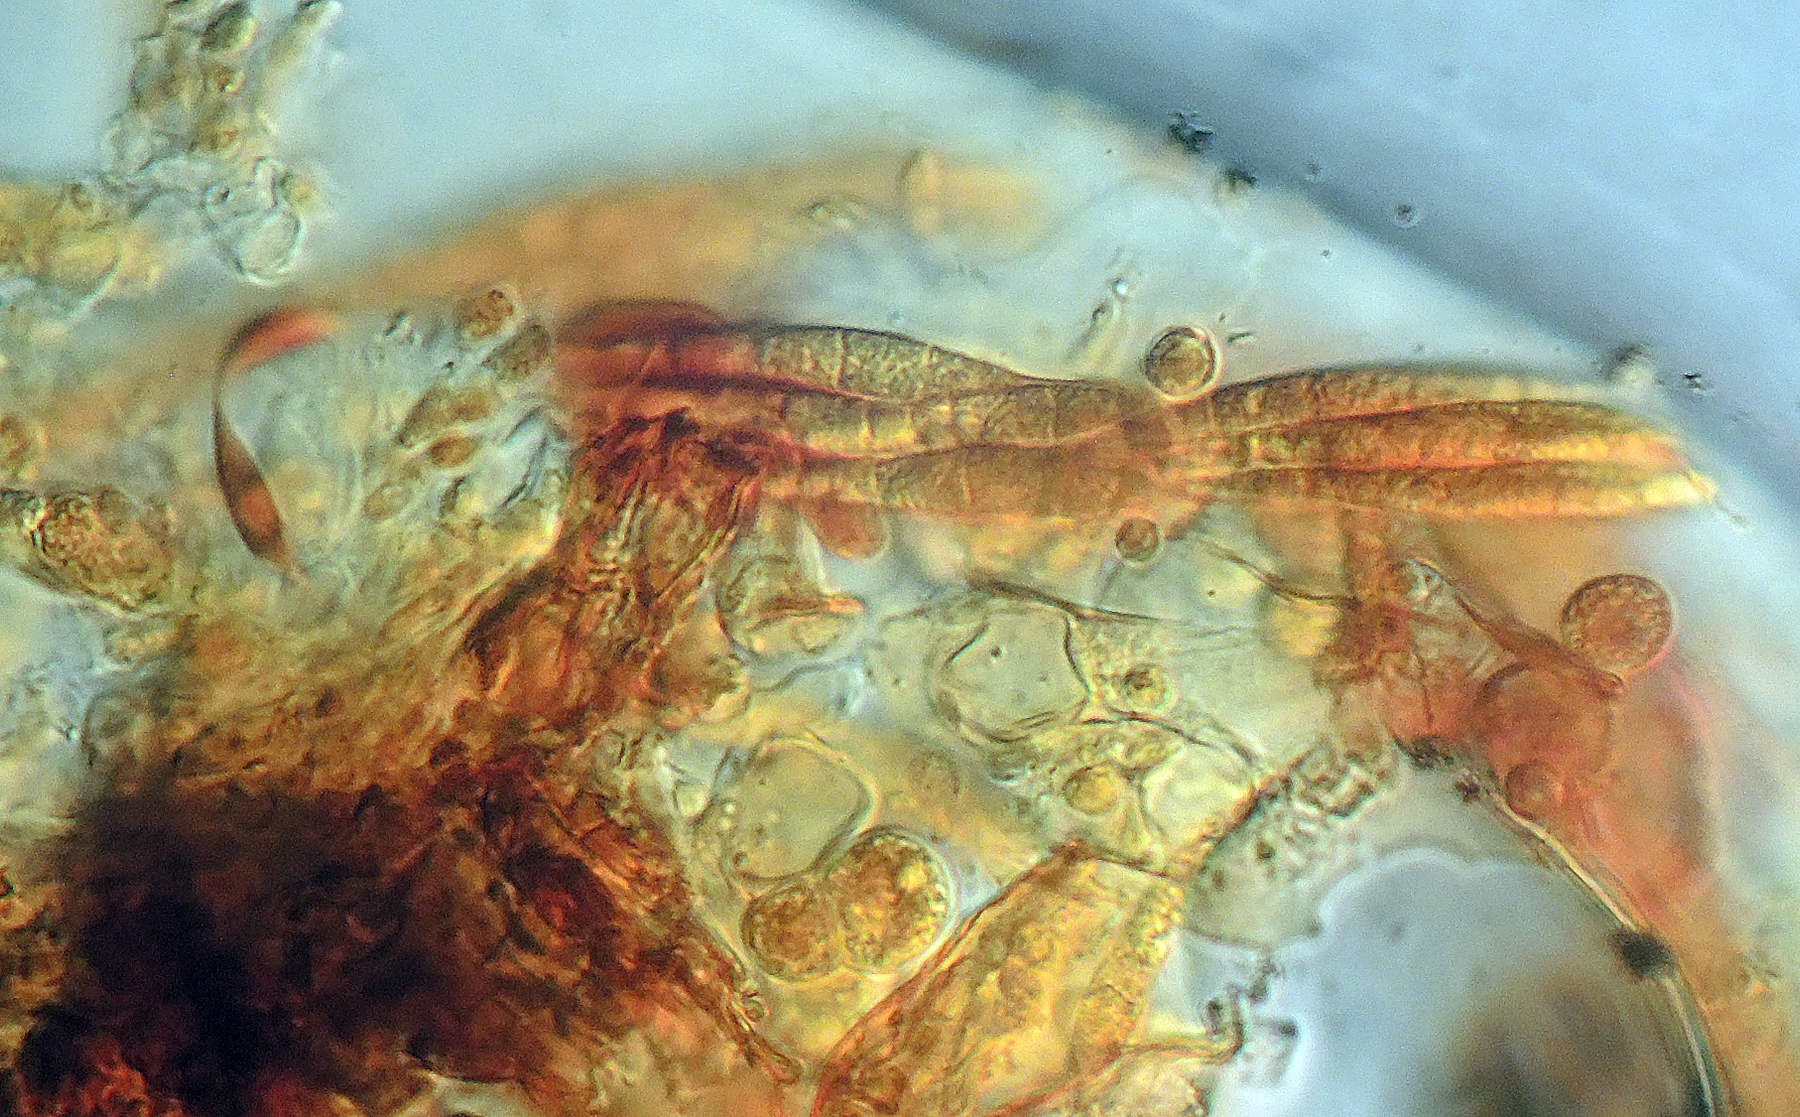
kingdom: Plantae
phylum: Bryophyta
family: Dothideomycetes
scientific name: Dothideomycetes
